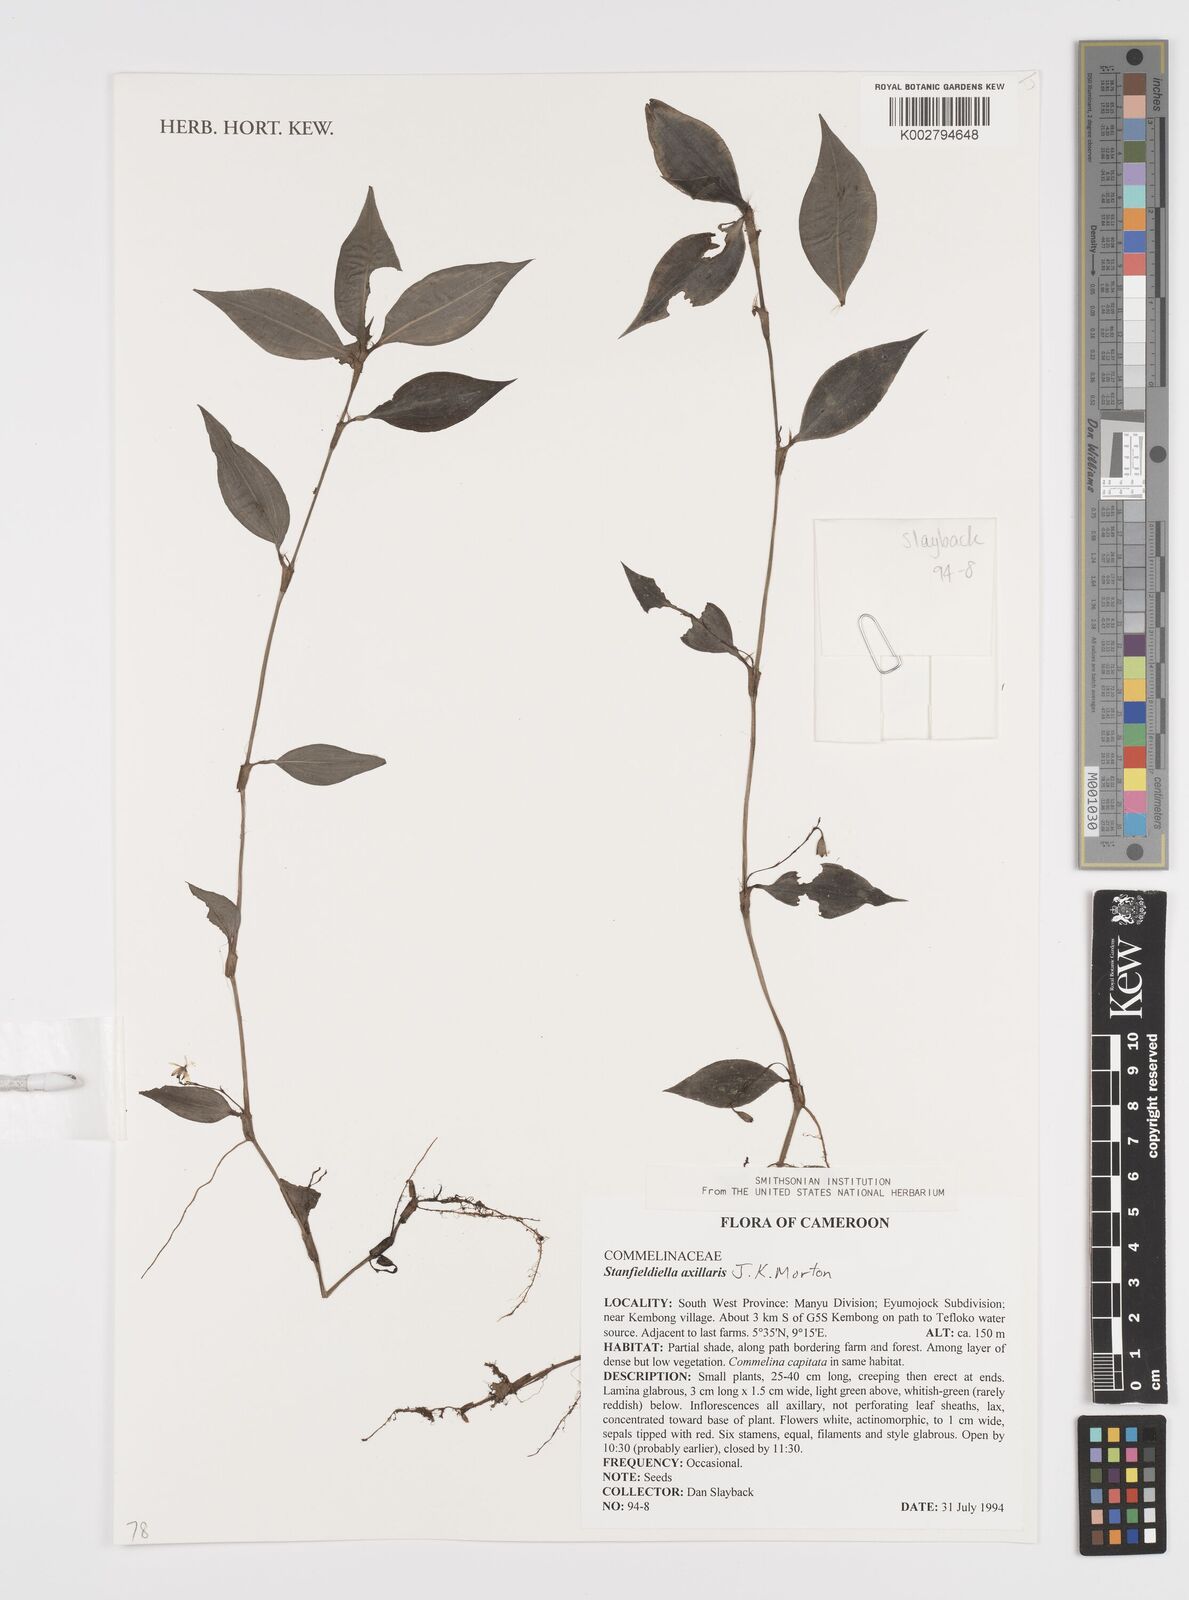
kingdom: Plantae
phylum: Tracheophyta
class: Liliopsida
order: Commelinales
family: Commelinaceae
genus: Stanfieldiella
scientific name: Stanfieldiella axillaris
